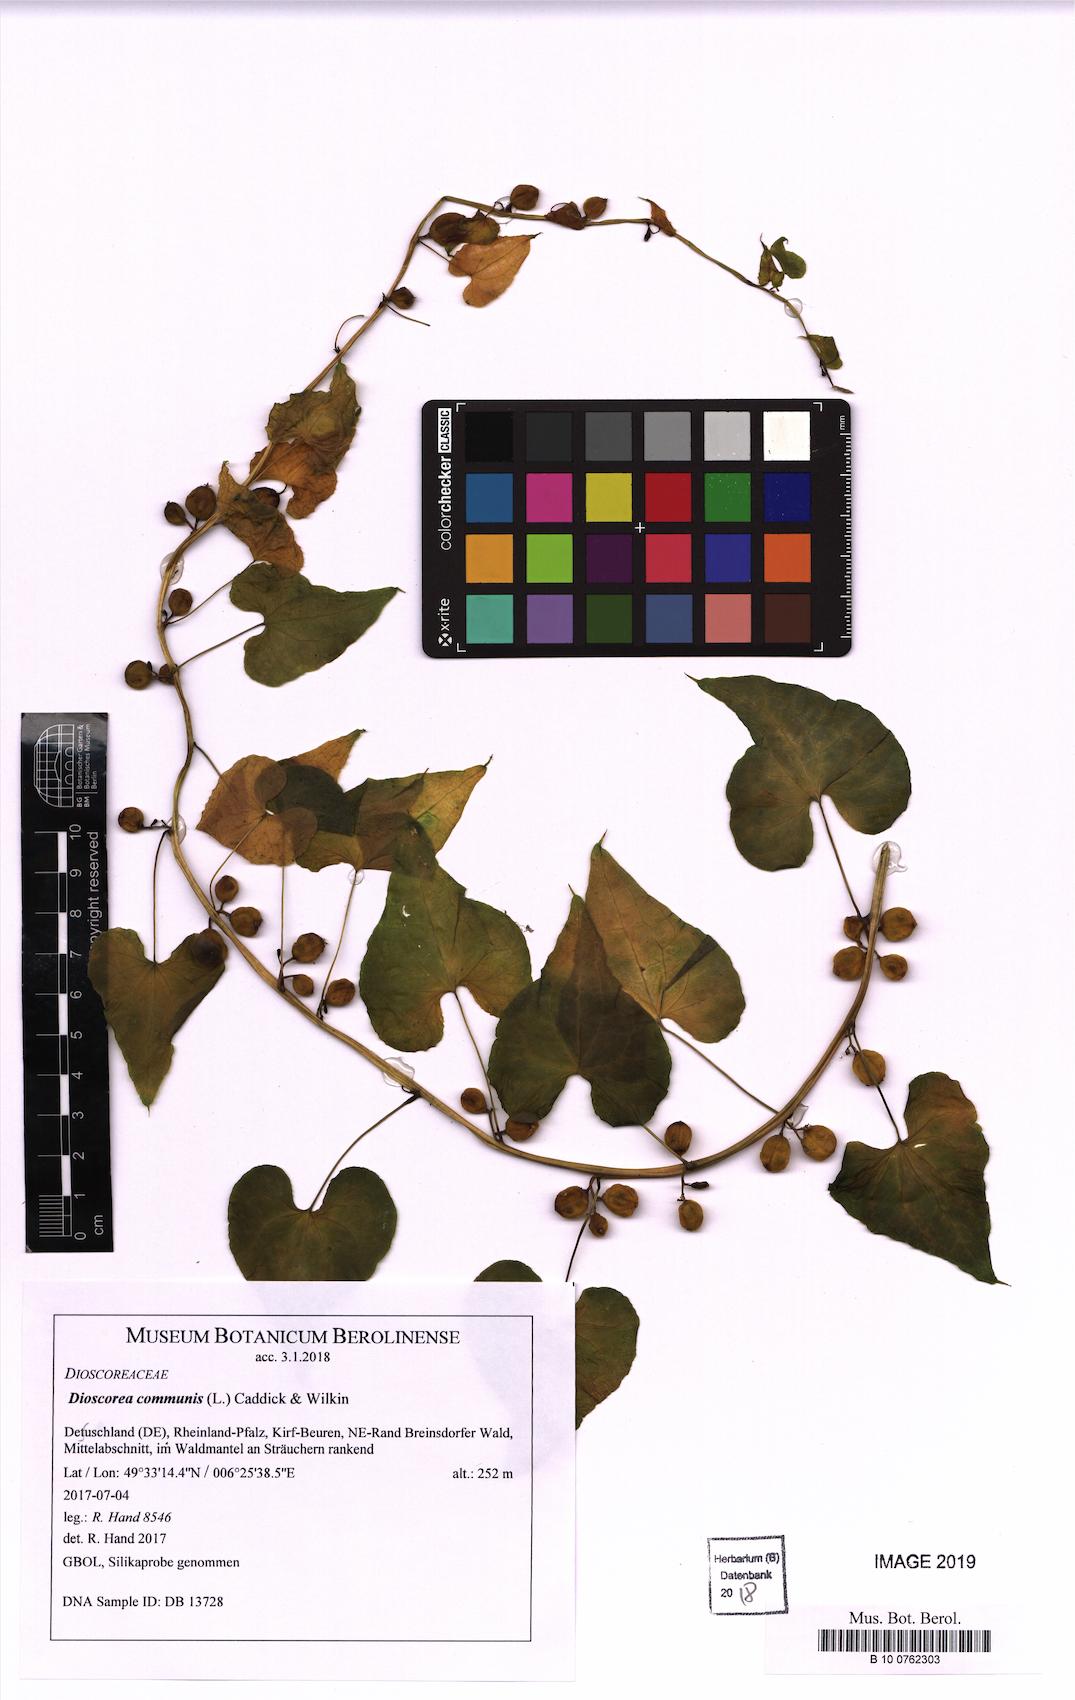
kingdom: Plantae
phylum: Tracheophyta
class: Liliopsida
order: Dioscoreales
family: Dioscoreaceae
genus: Dioscorea
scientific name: Dioscorea communis
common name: Black-bindweed
